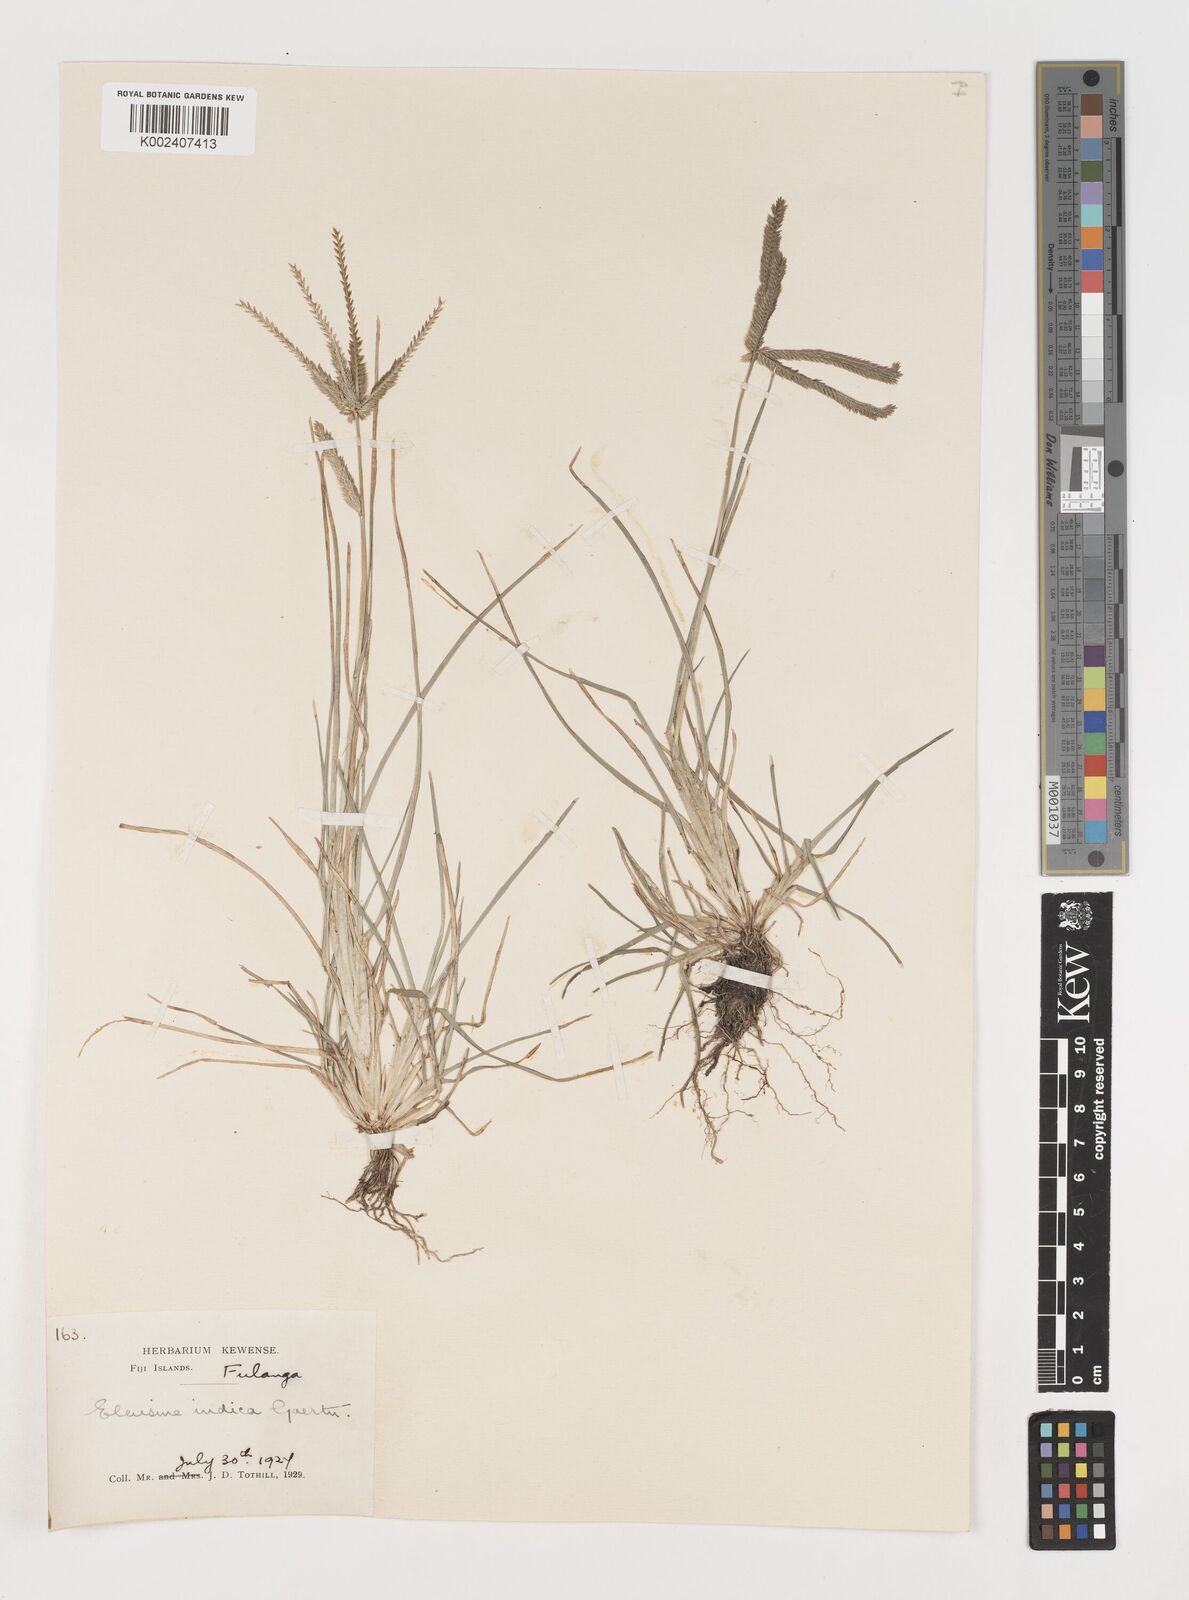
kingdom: Plantae
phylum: Tracheophyta
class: Liliopsida
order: Poales
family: Poaceae
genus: Eleusine
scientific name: Eleusine indica
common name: Yard-grass
